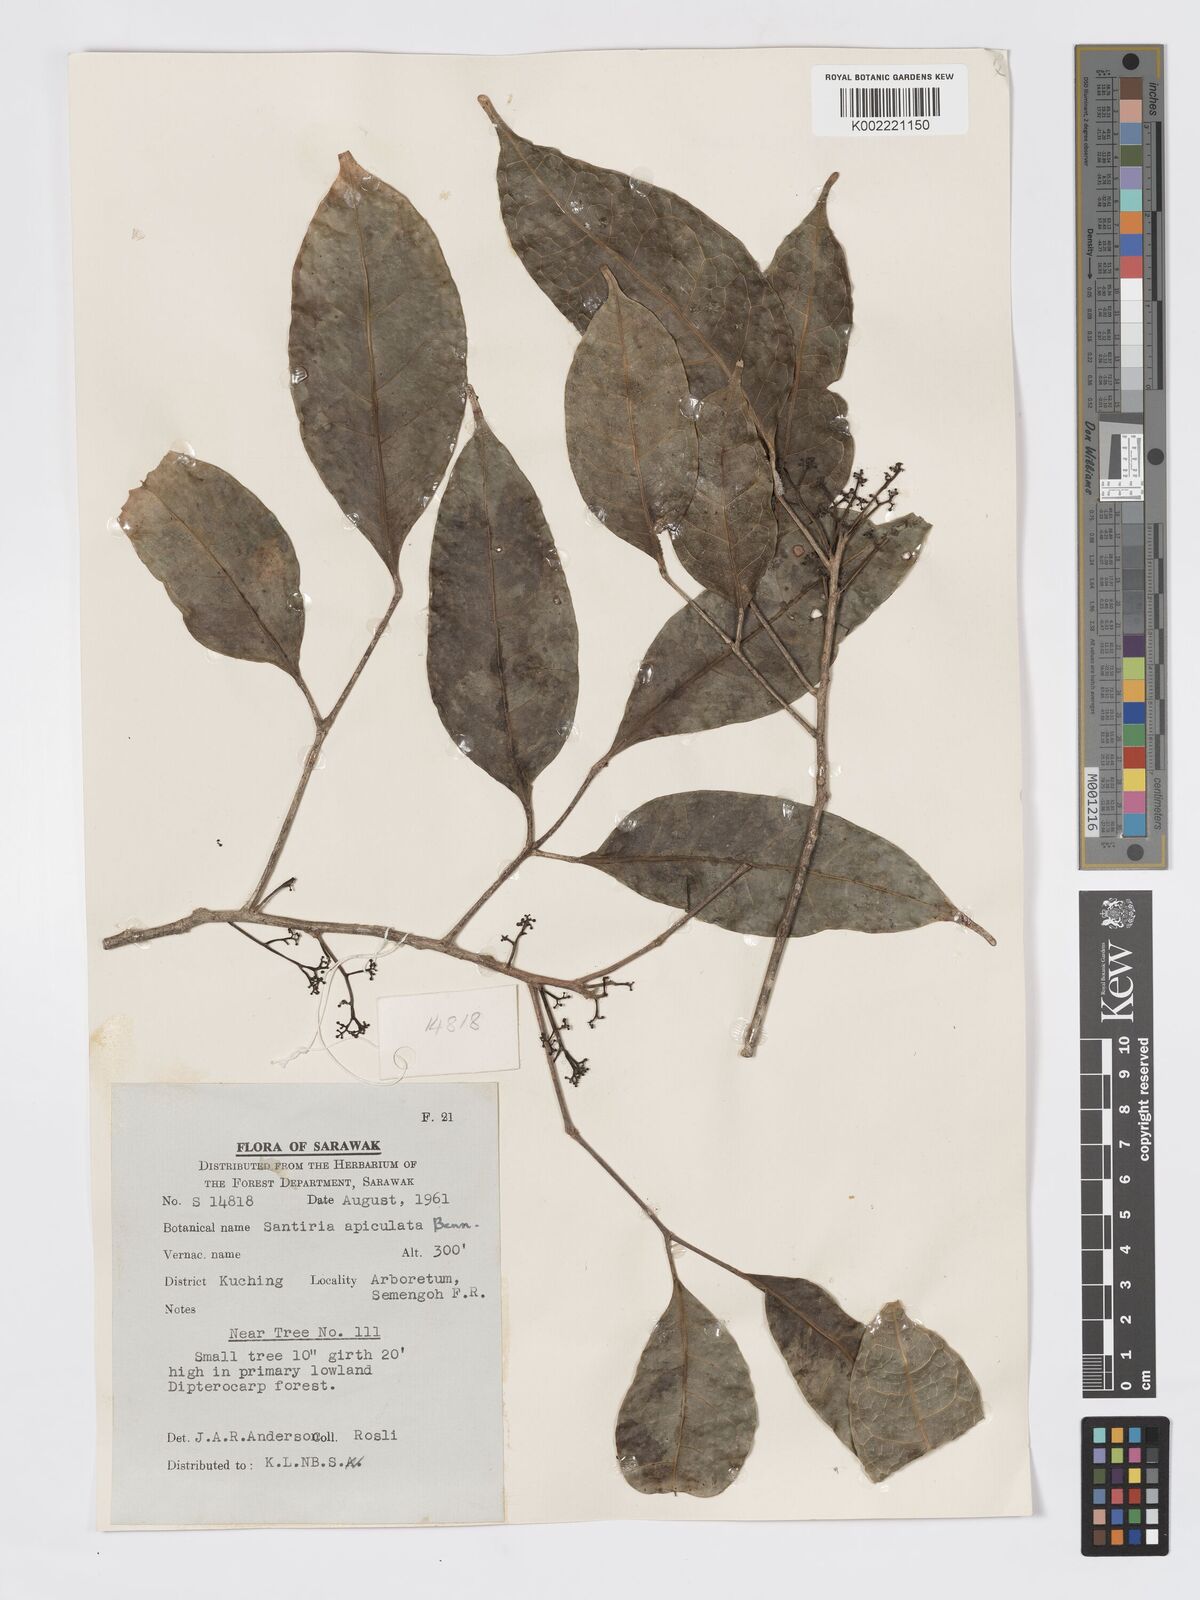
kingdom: Plantae
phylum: Tracheophyta
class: Magnoliopsida
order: Sapindales
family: Burseraceae
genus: Santiria
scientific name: Santiria apiculata
